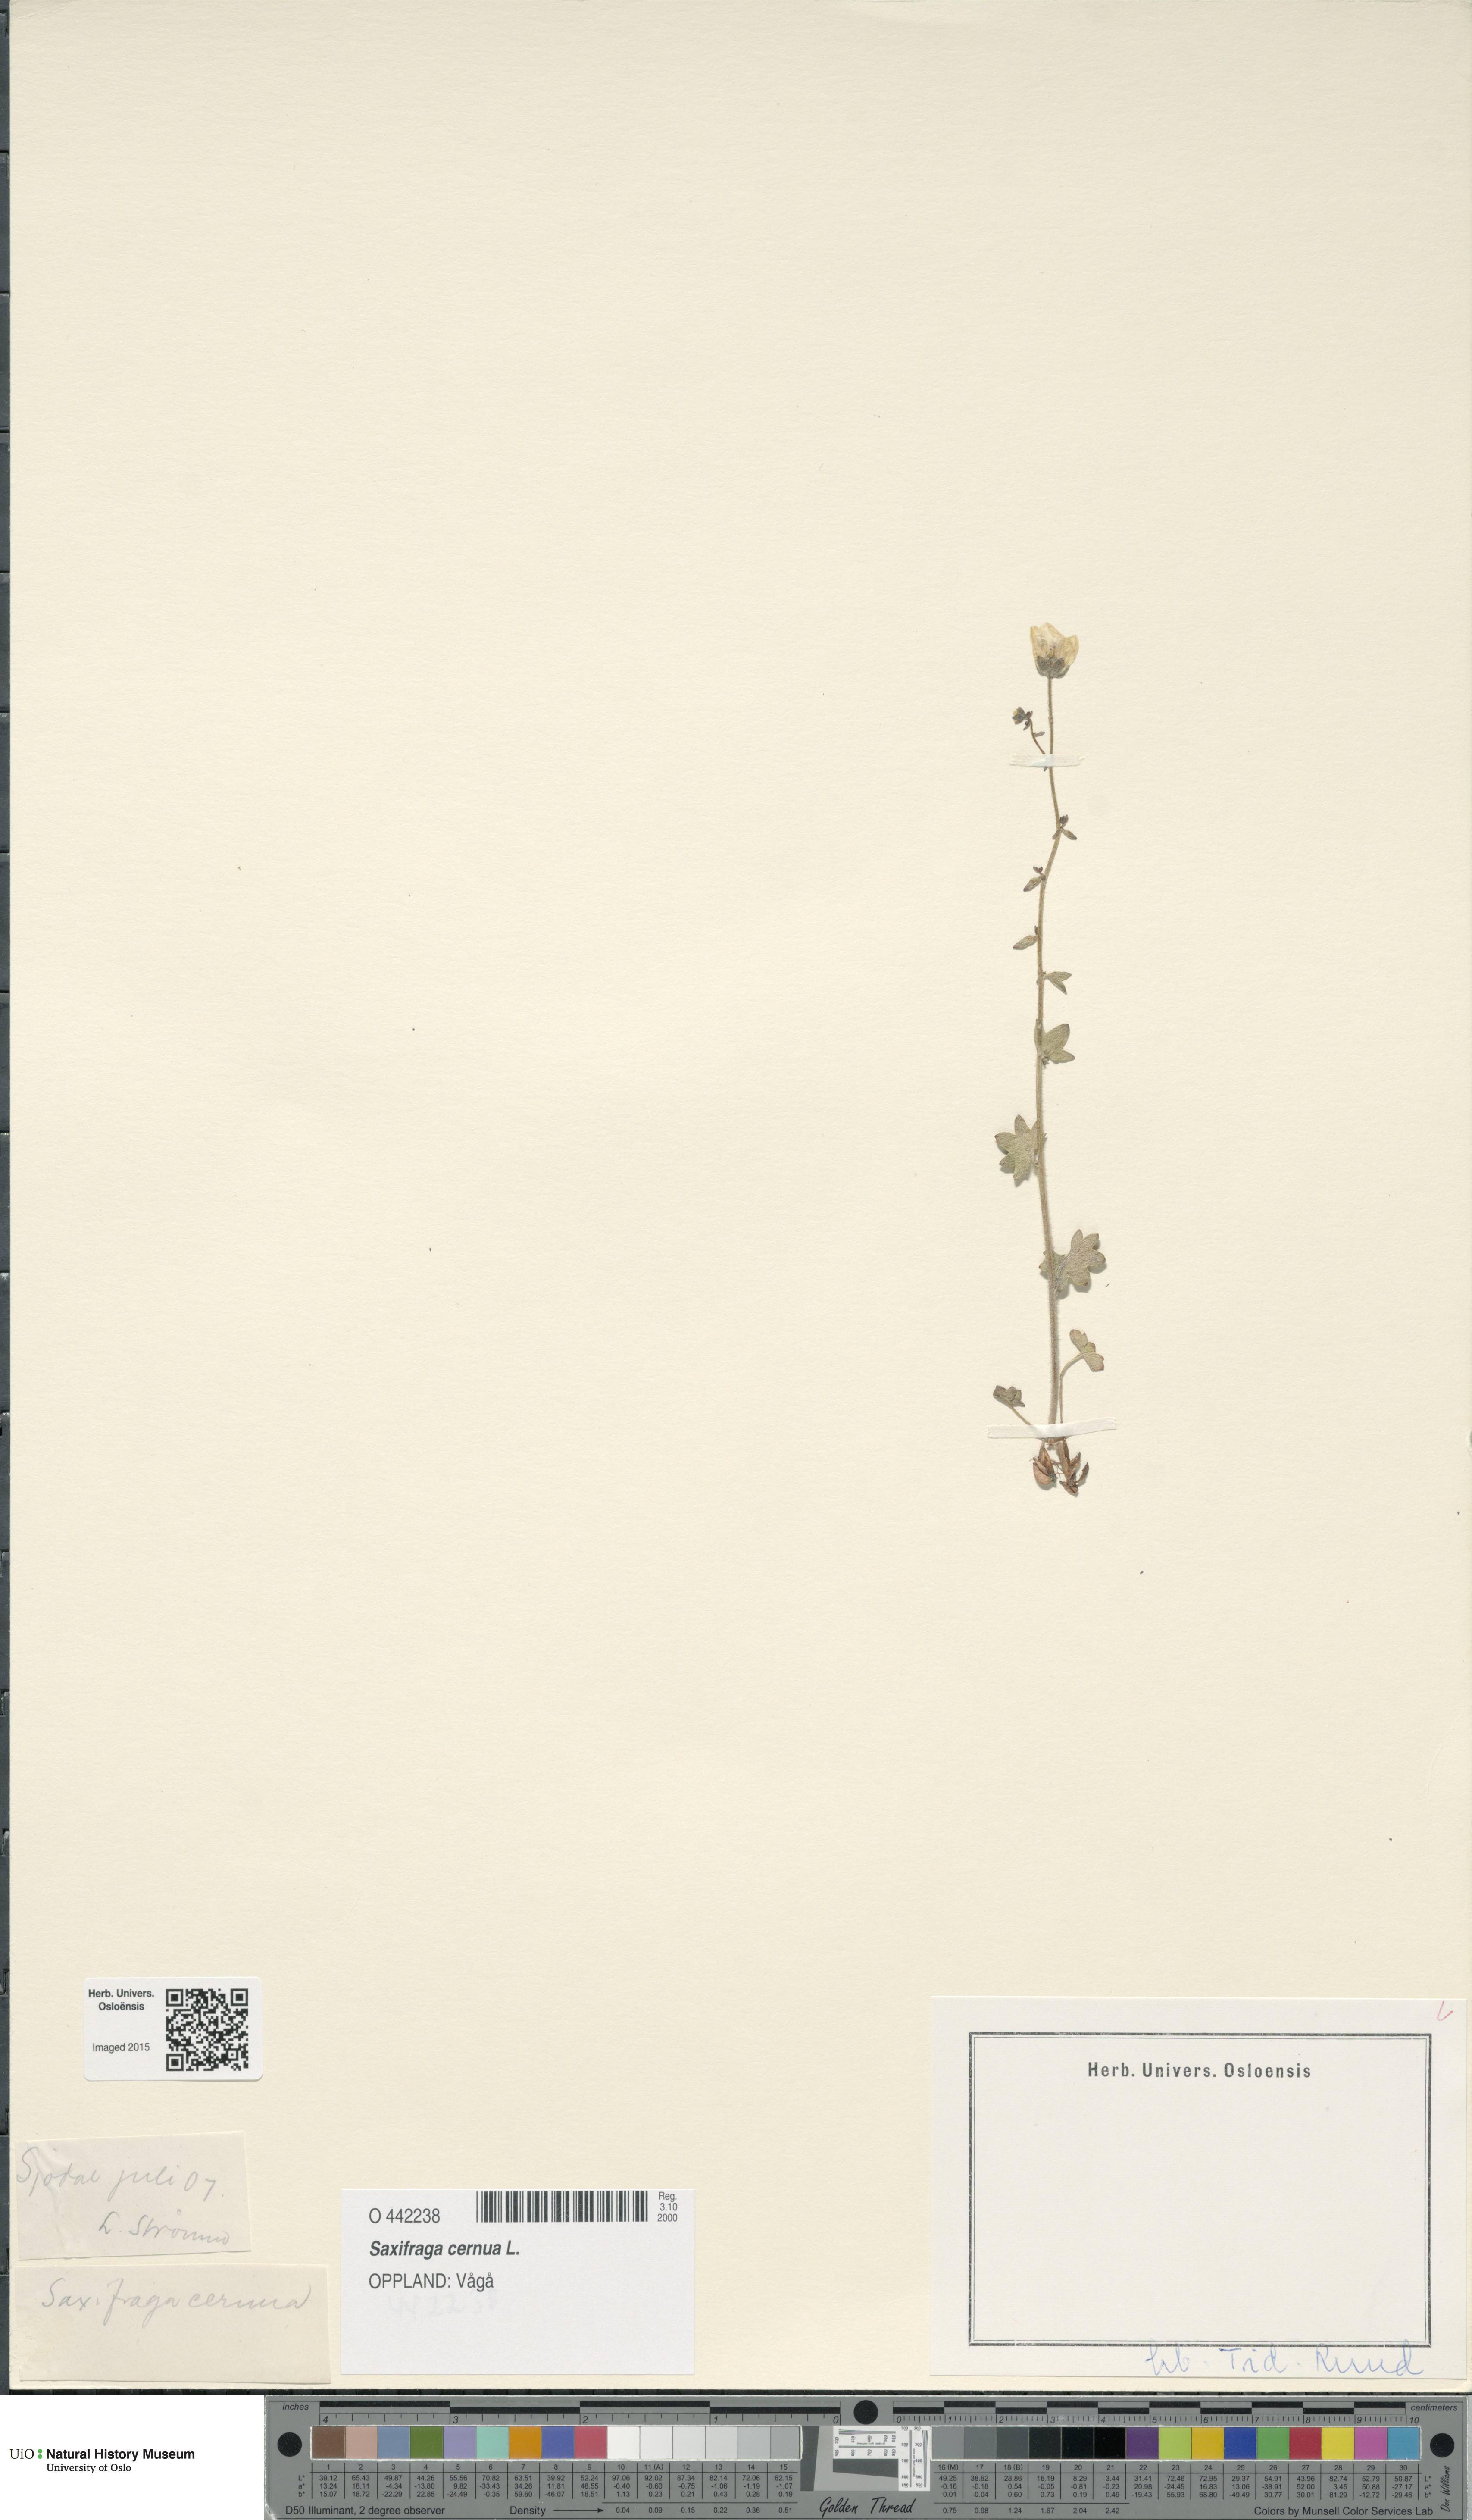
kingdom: Plantae
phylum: Tracheophyta
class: Magnoliopsida
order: Saxifragales
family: Saxifragaceae
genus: Saxifraga
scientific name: Saxifraga cernua
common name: Drooping saxifrage
